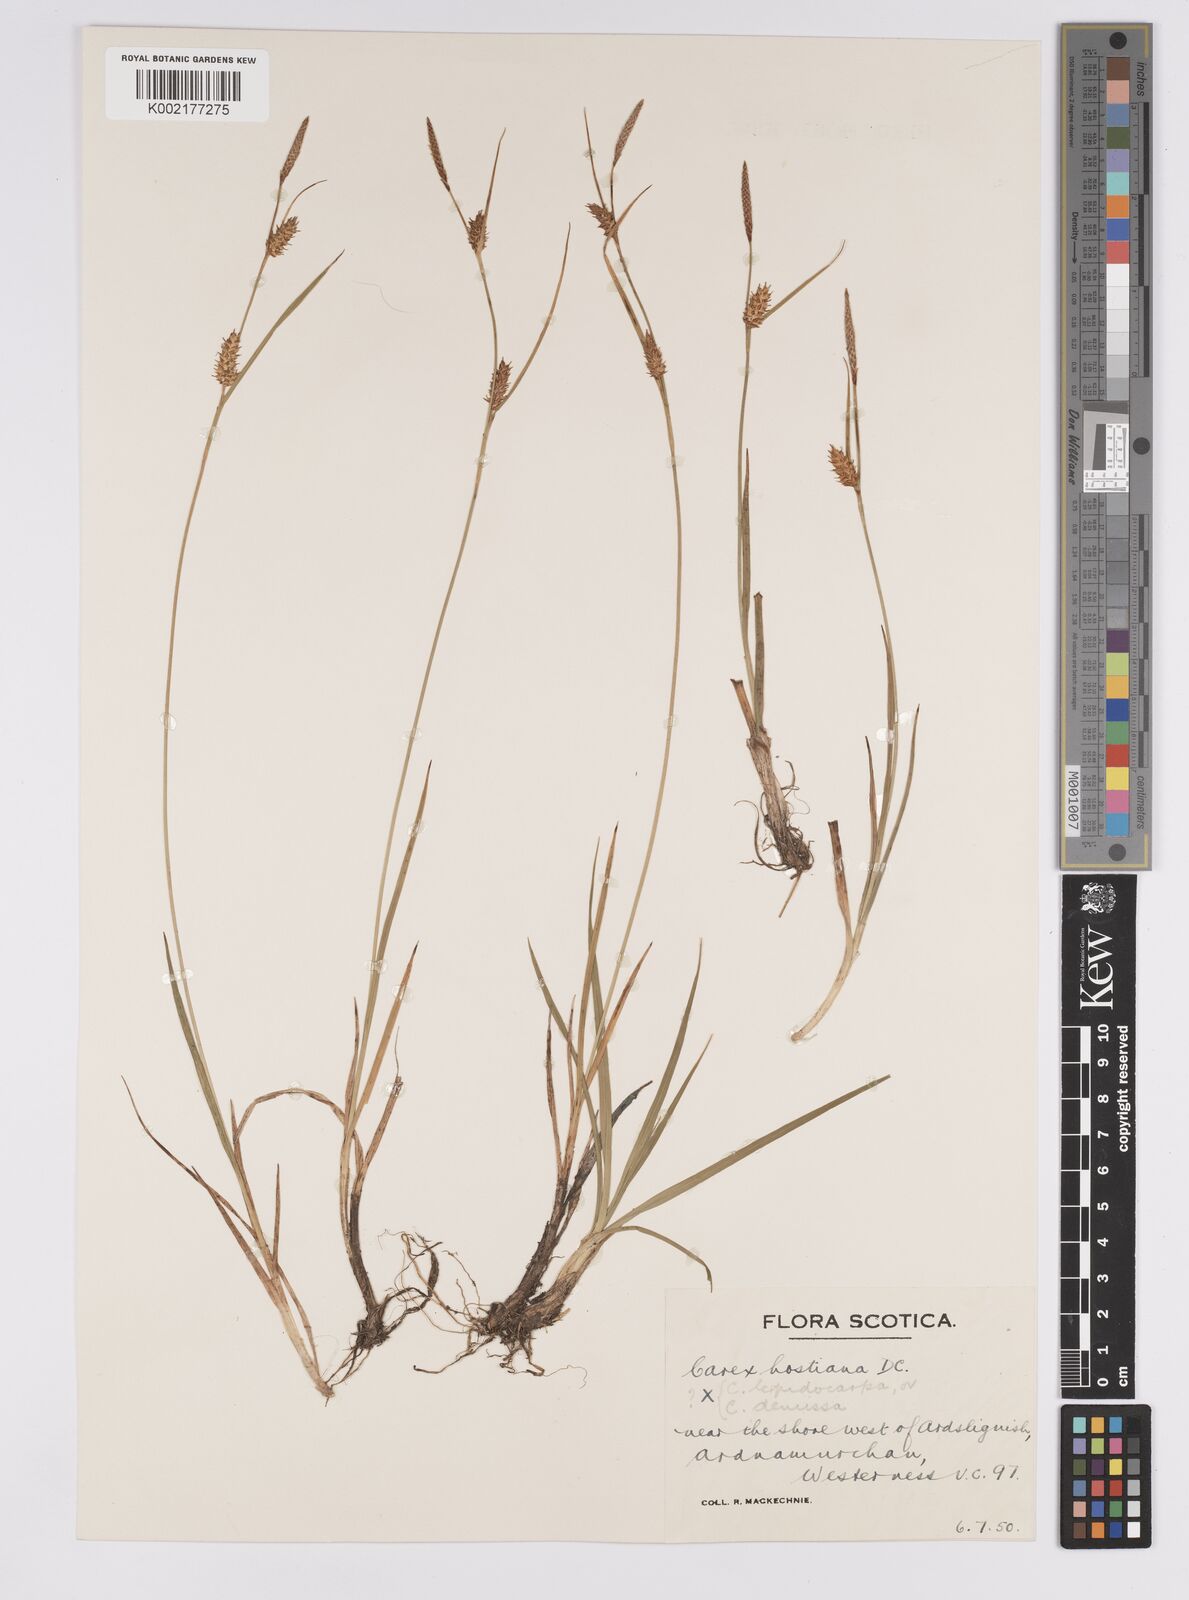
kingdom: Plantae
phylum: Tracheophyta
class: Liliopsida
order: Poales
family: Cyperaceae
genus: Carex
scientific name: Carex hostiana
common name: Tawny sedge
